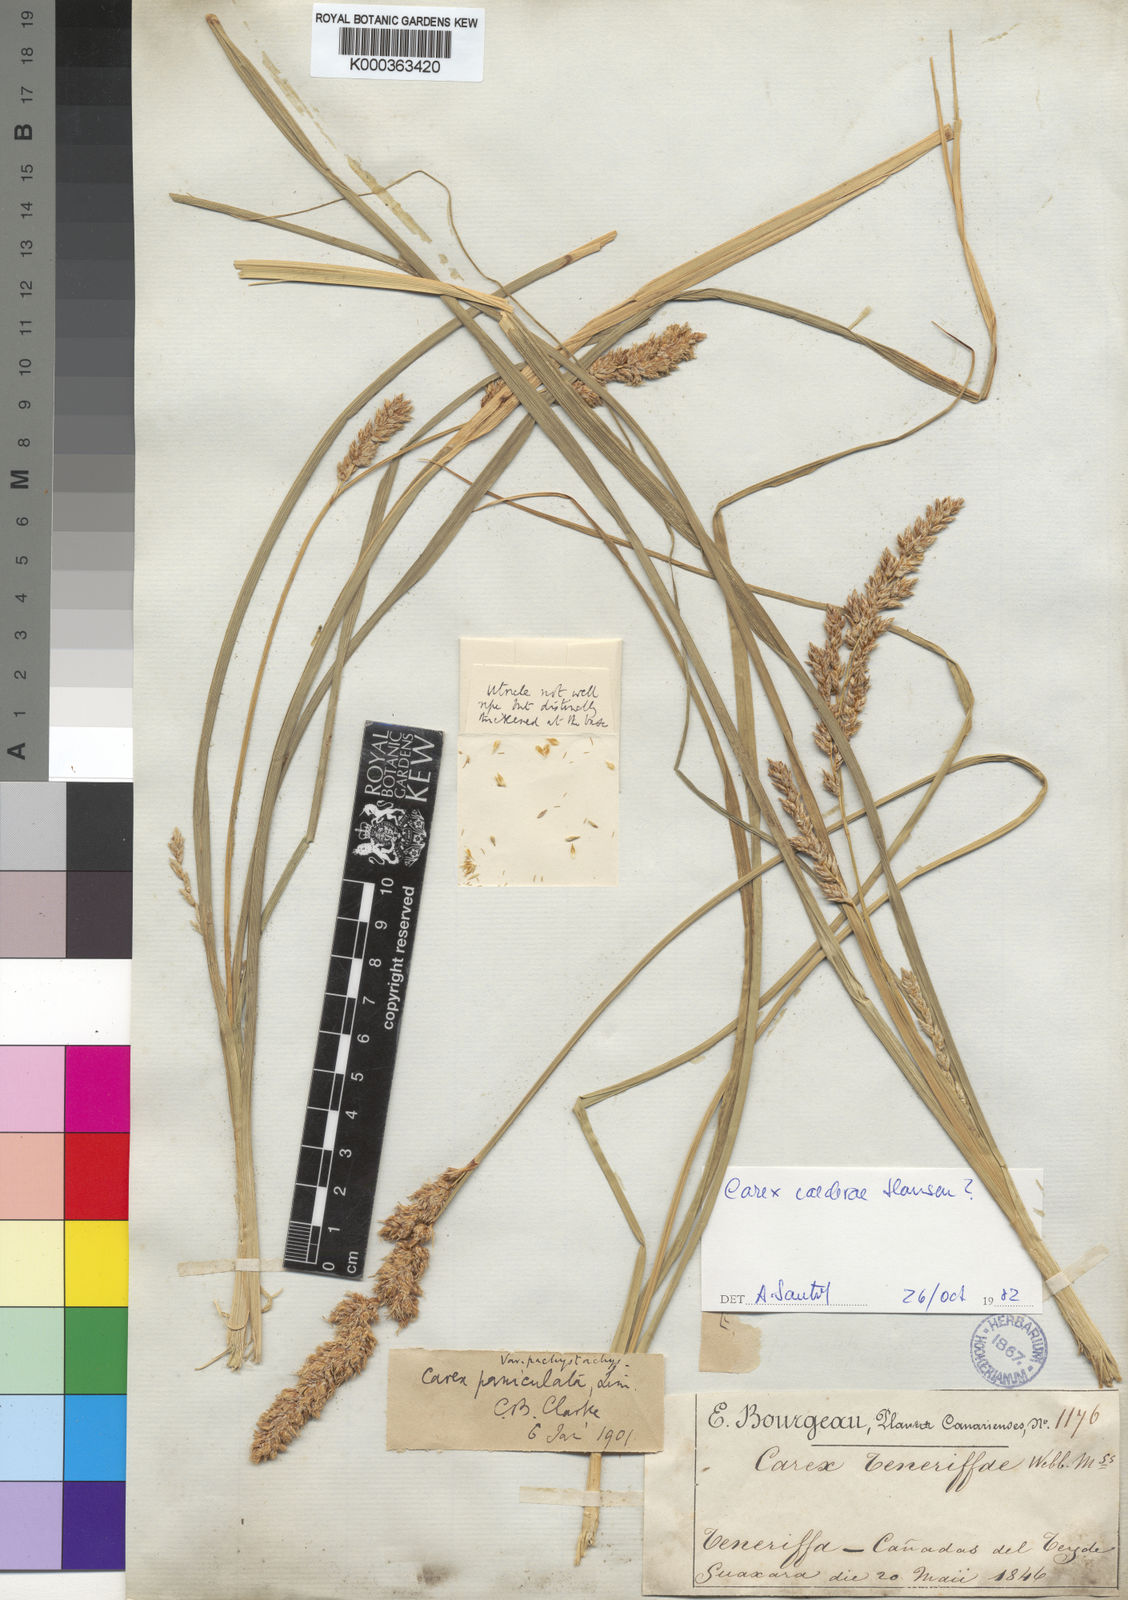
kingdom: Plantae
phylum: Tracheophyta
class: Liliopsida
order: Poales
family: Cyperaceae
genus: Carex
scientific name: Carex paniculata
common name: Greater tussock-sedge
